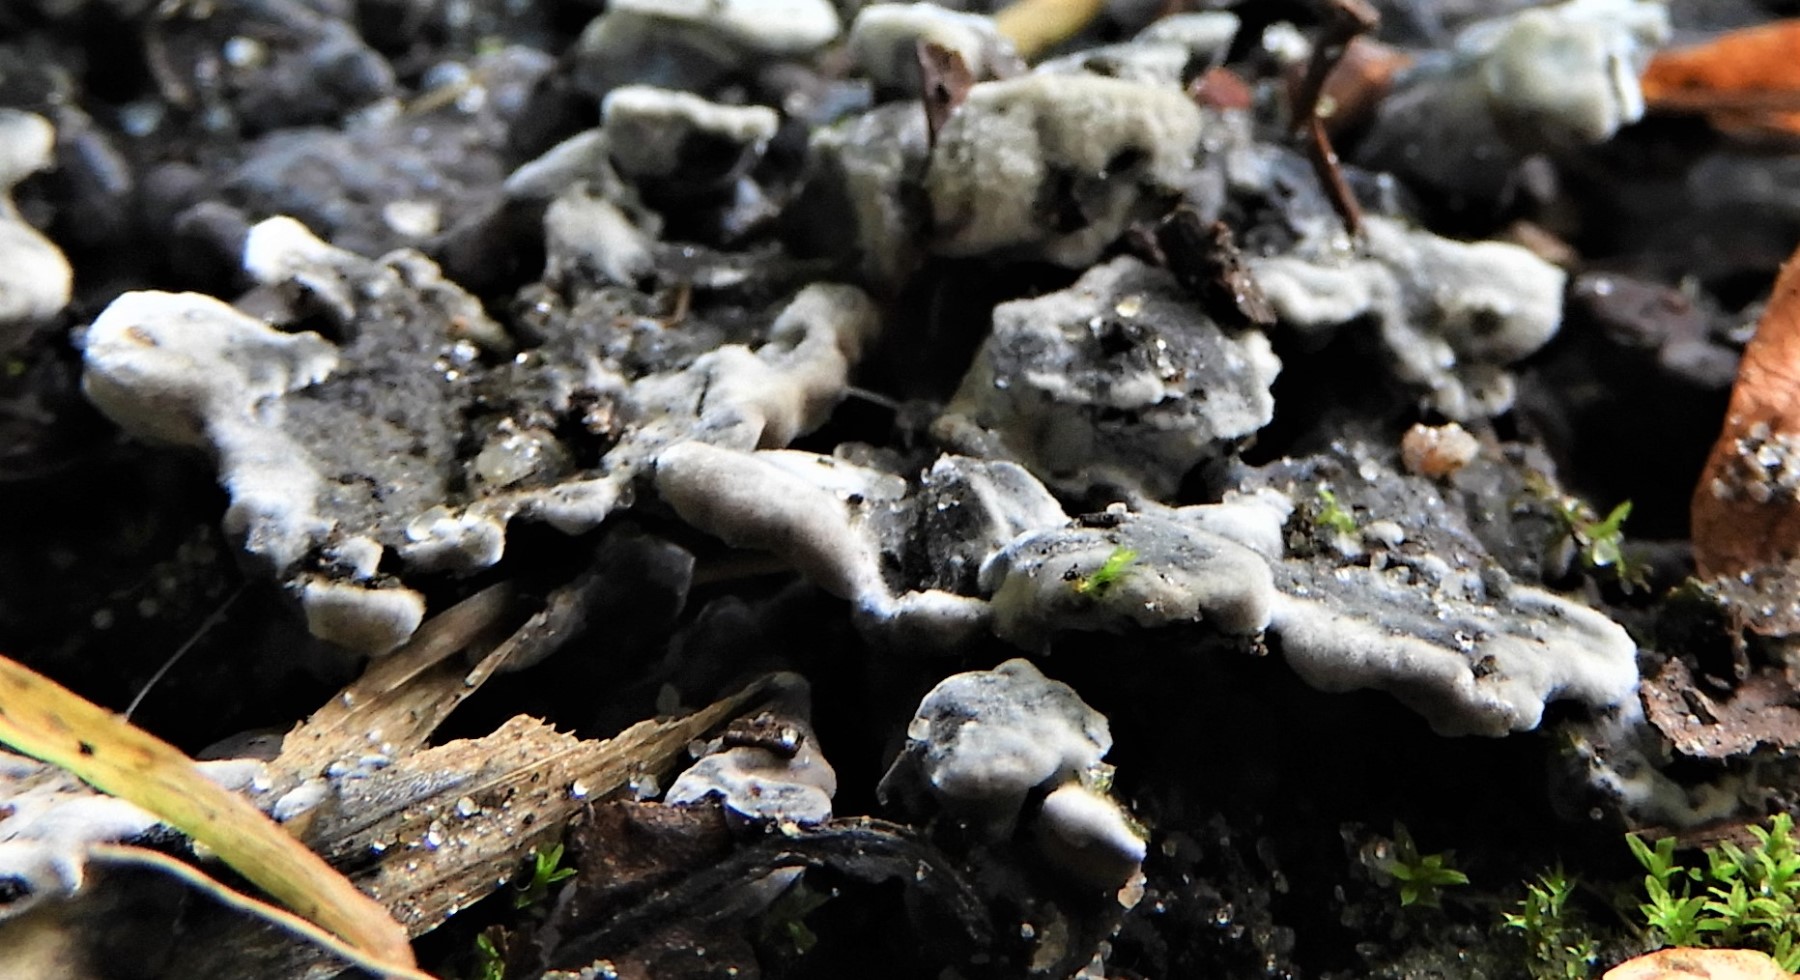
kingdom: Fungi
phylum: Ascomycota
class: Sordariomycetes
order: Xylariales
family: Xylariaceae
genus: Kretzschmaria
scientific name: Kretzschmaria deusta
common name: stor kulsvamp
